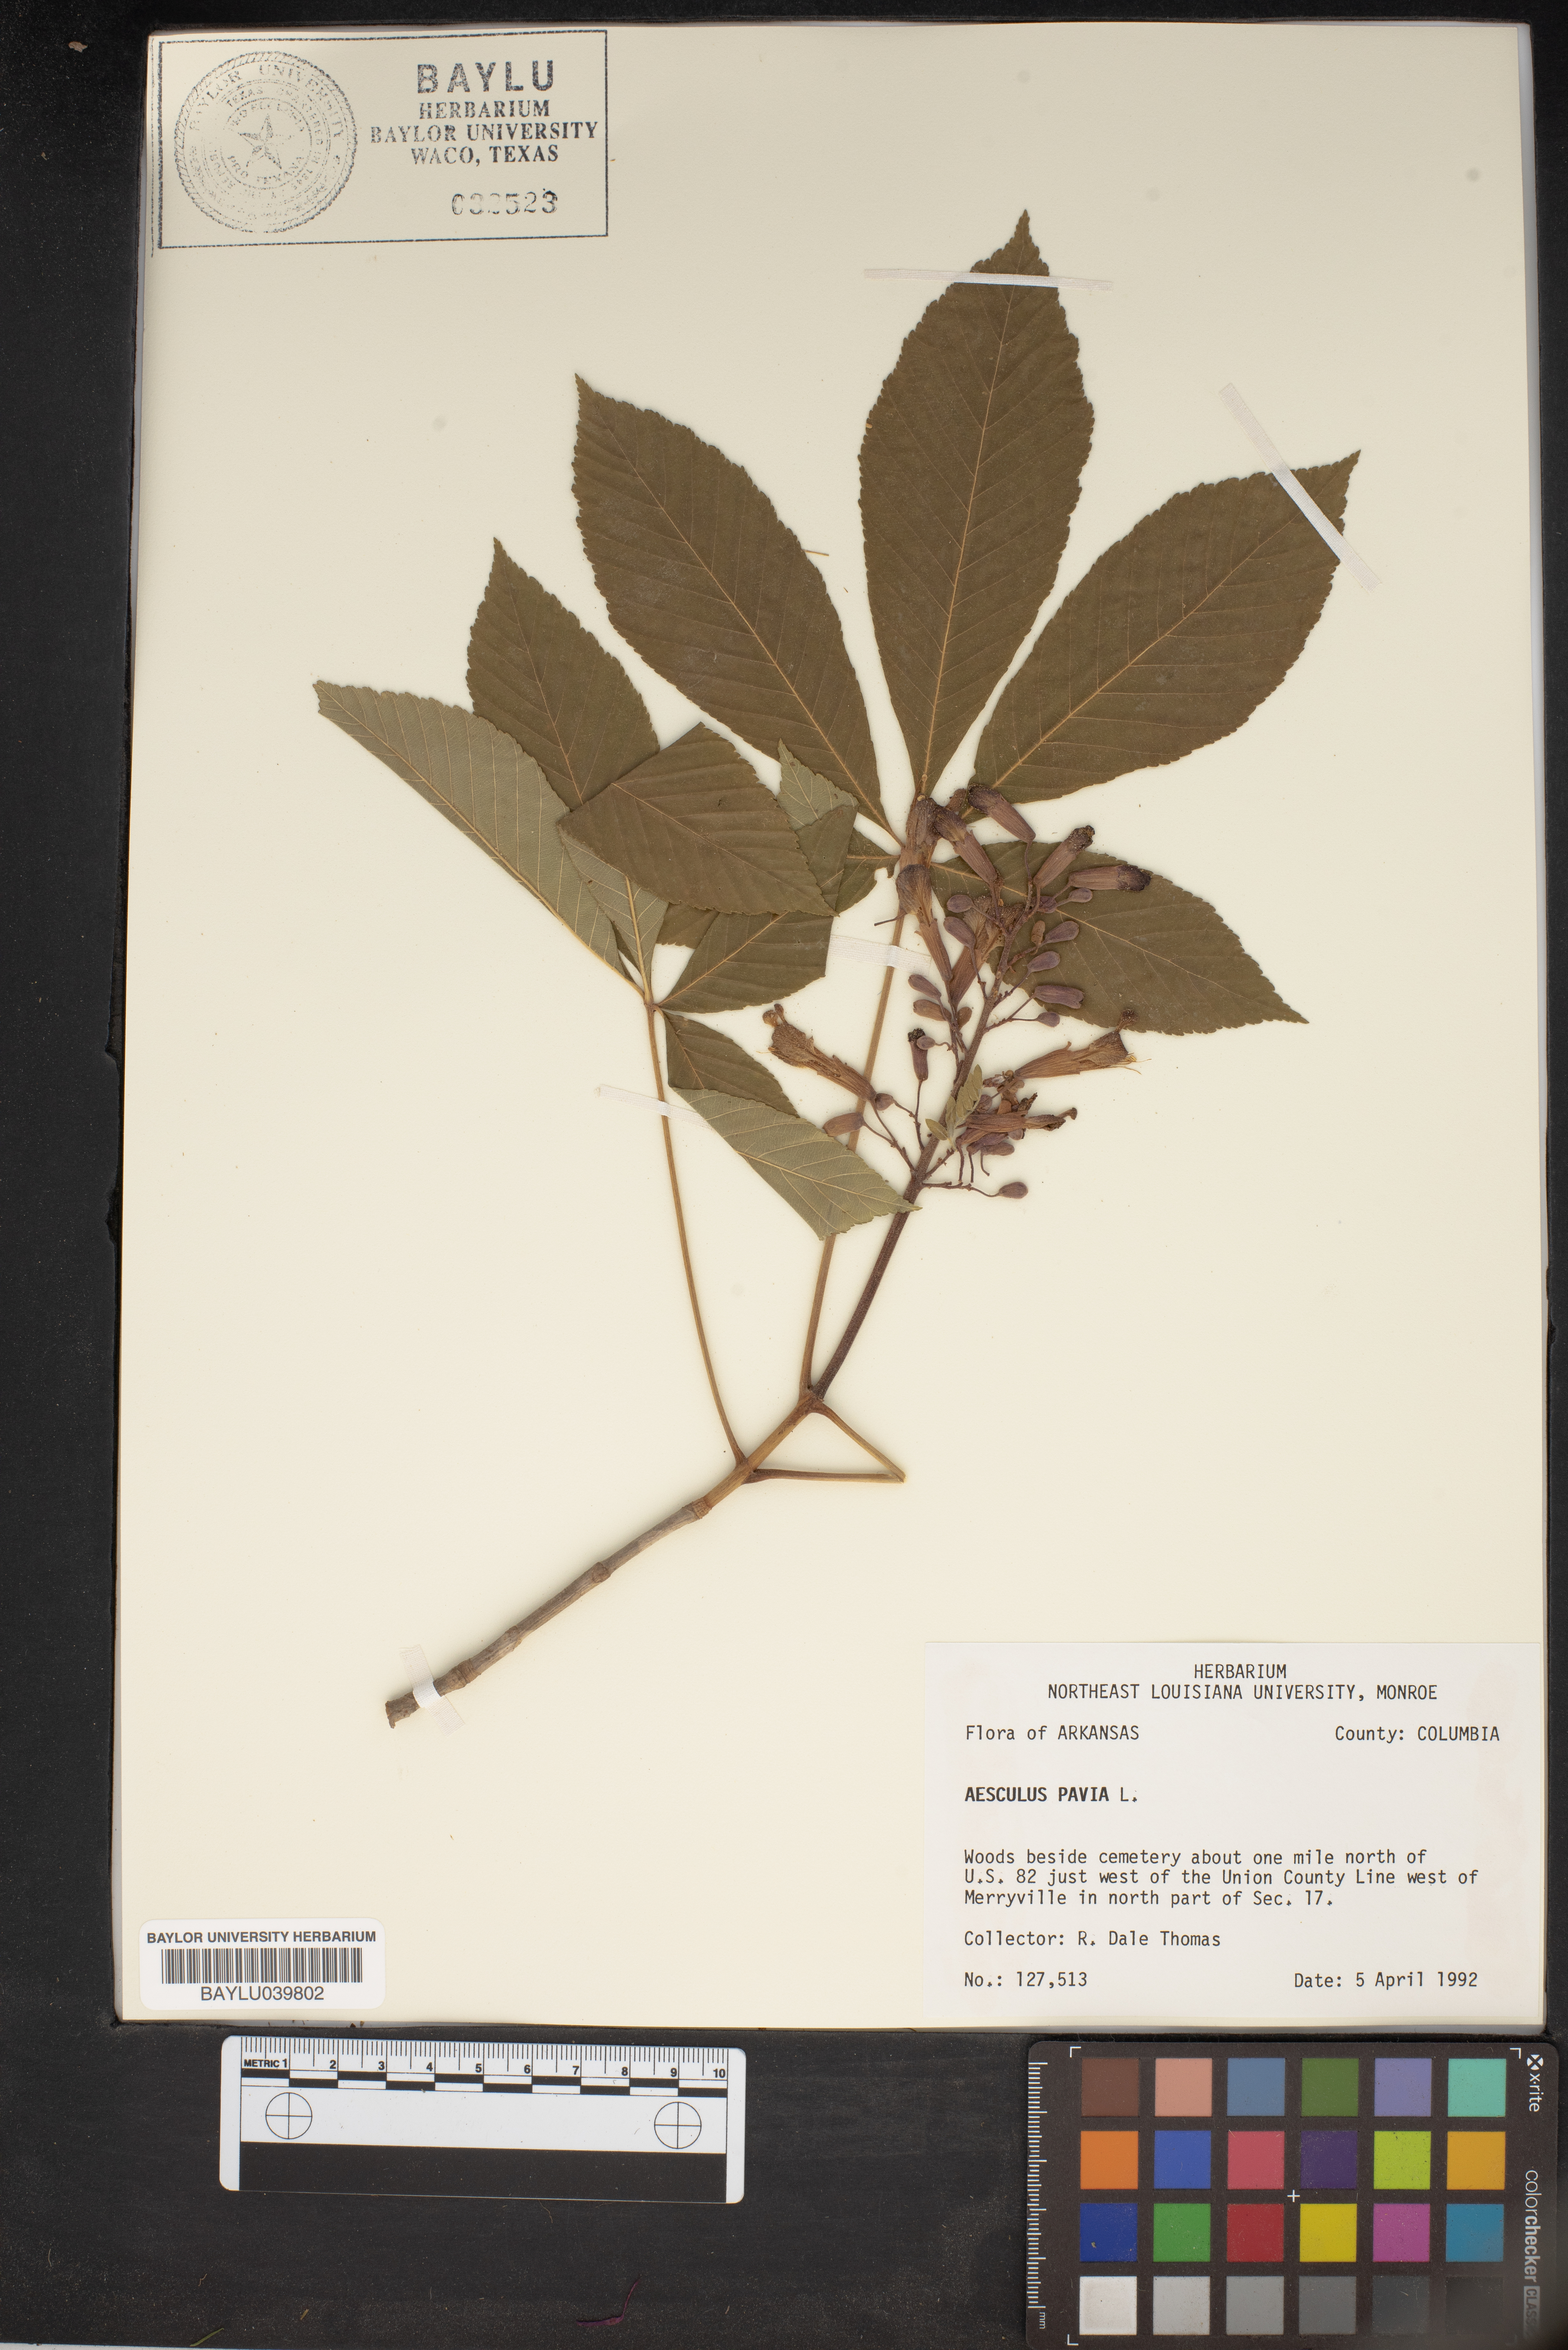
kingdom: Plantae
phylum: Tracheophyta
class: Magnoliopsida
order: Sapindales
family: Sapindaceae
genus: Aesculus
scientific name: Aesculus pavia
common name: Red buckeye
